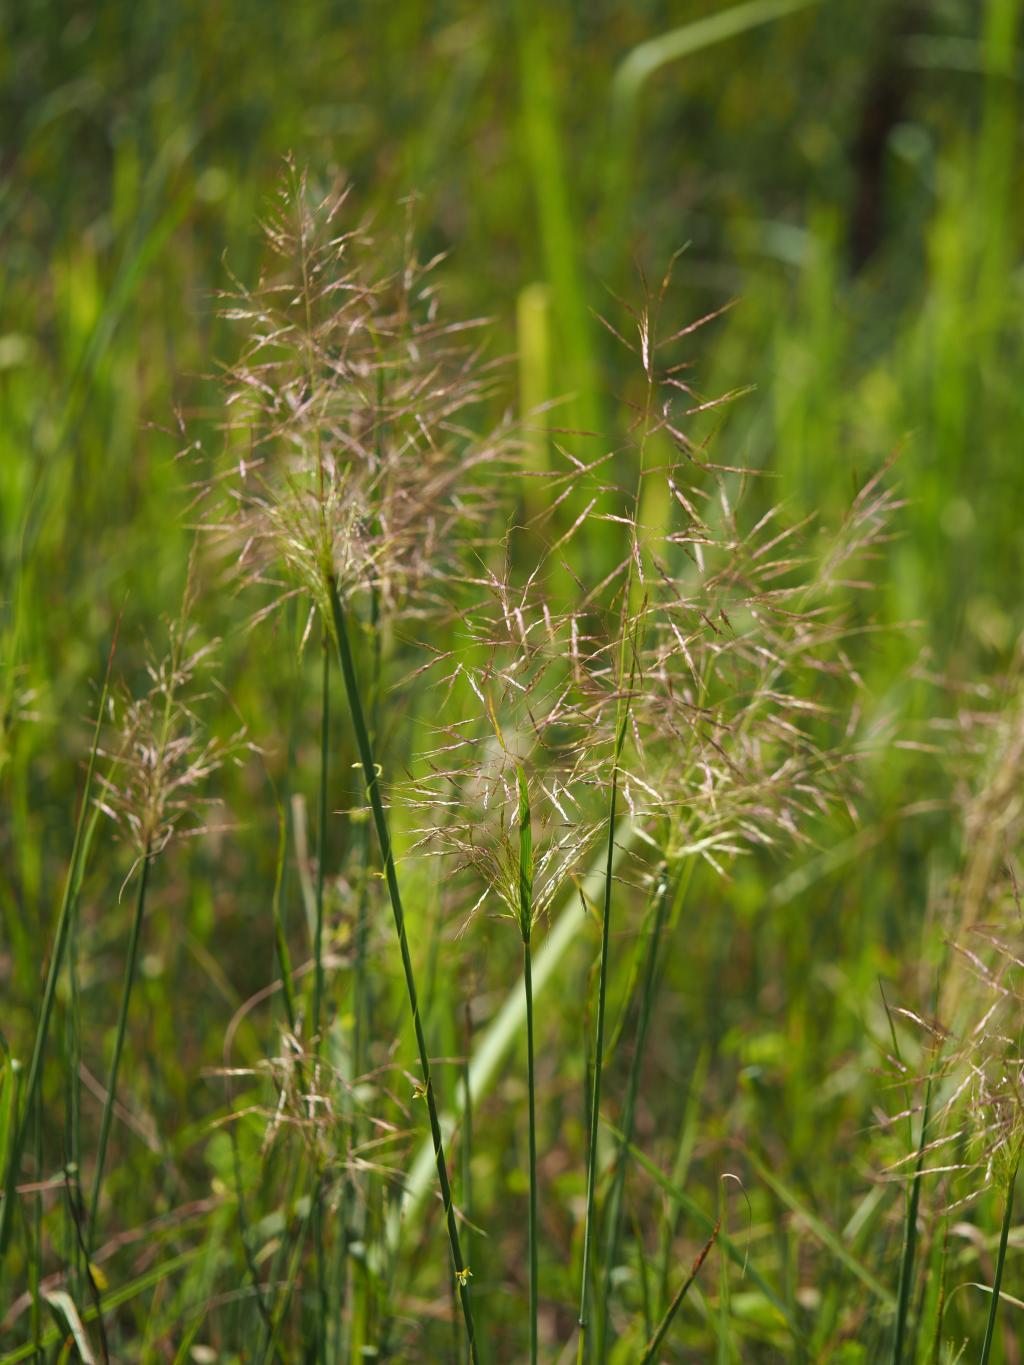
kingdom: Plantae
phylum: Tracheophyta
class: Liliopsida
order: Poales
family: Poaceae
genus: Capillipedium
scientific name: Capillipedium parviflorum
